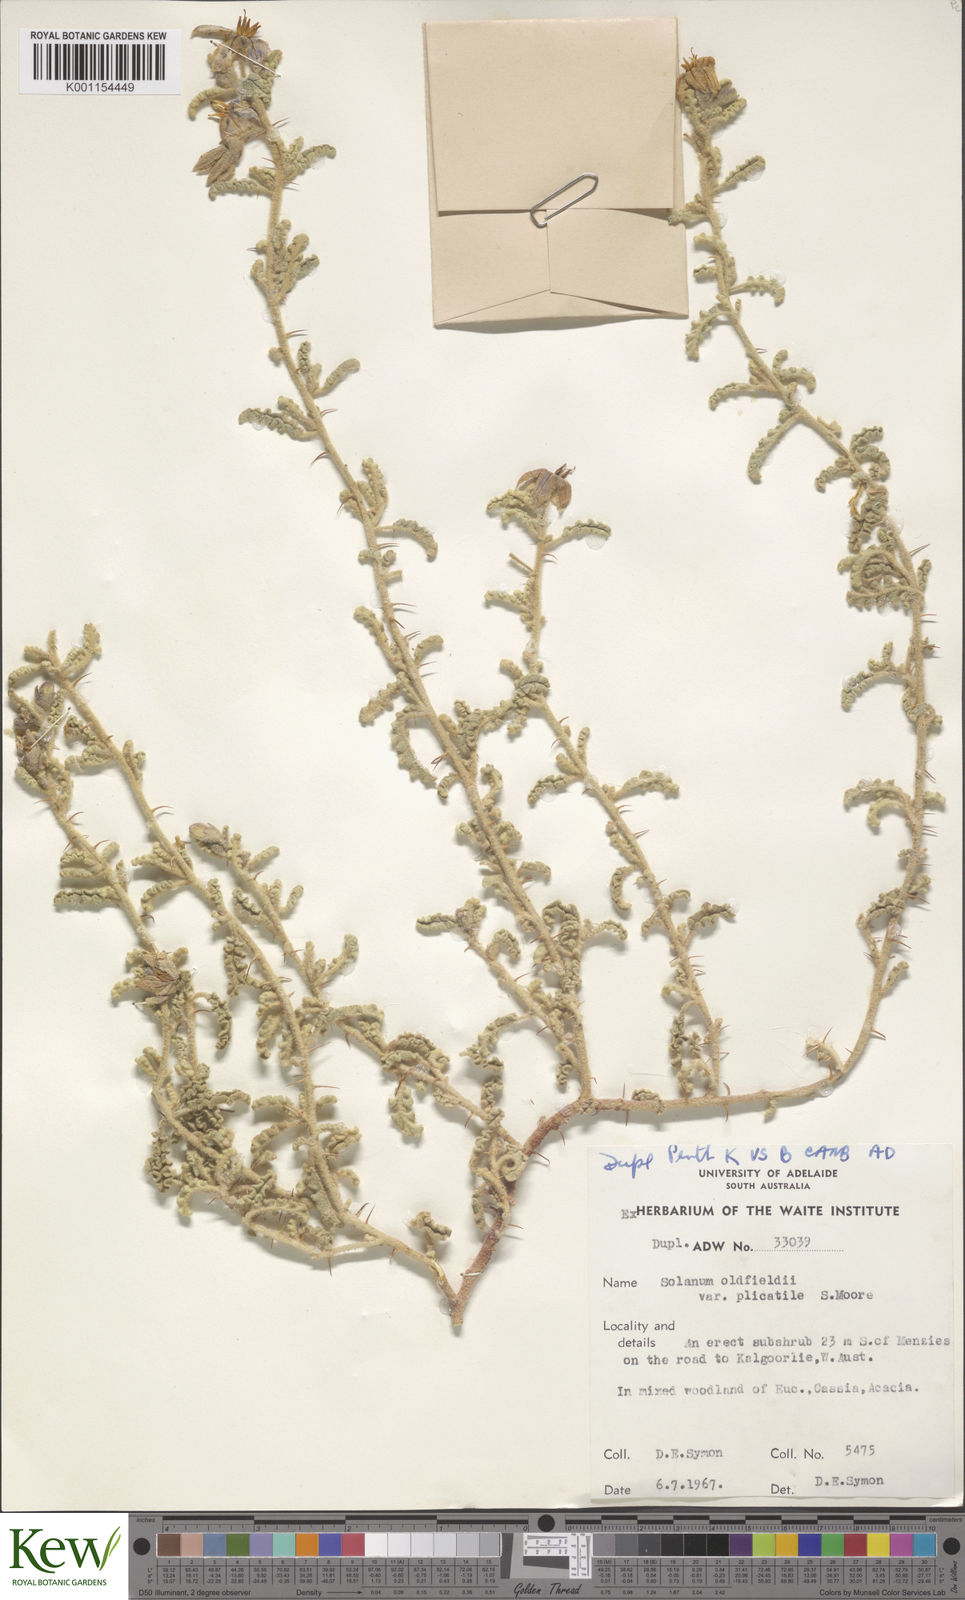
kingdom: Plantae
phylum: Tracheophyta
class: Magnoliopsida
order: Solanales
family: Solanaceae
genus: Solanum
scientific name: Solanum plicatile
